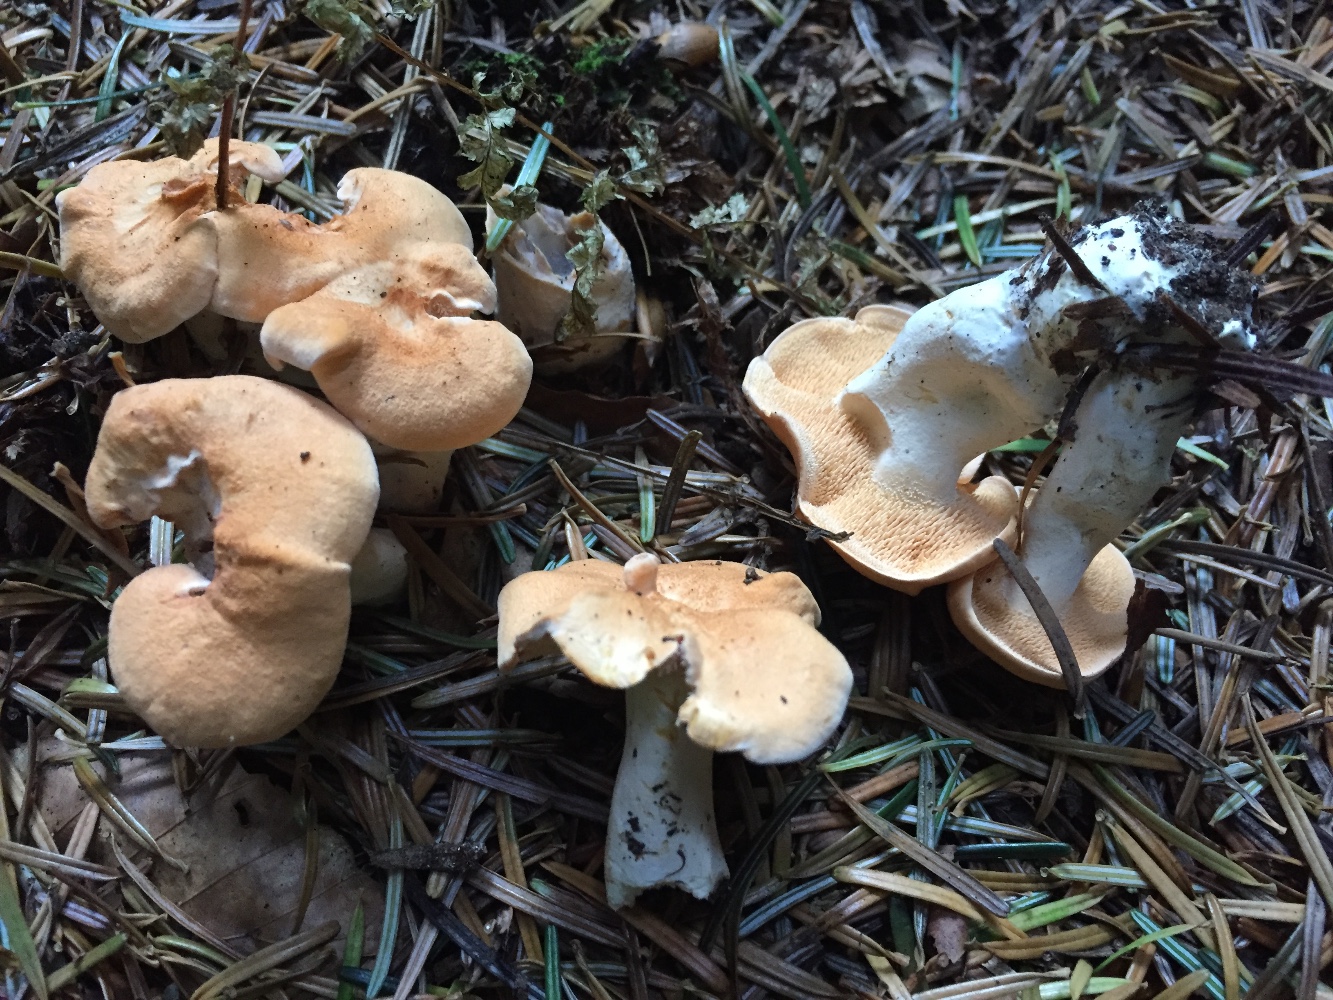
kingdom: Fungi
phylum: Basidiomycota
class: Agaricomycetes
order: Cantharellales
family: Hydnaceae
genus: Hydnum
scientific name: Hydnum ellipsosporum
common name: tandet pigsvamp
